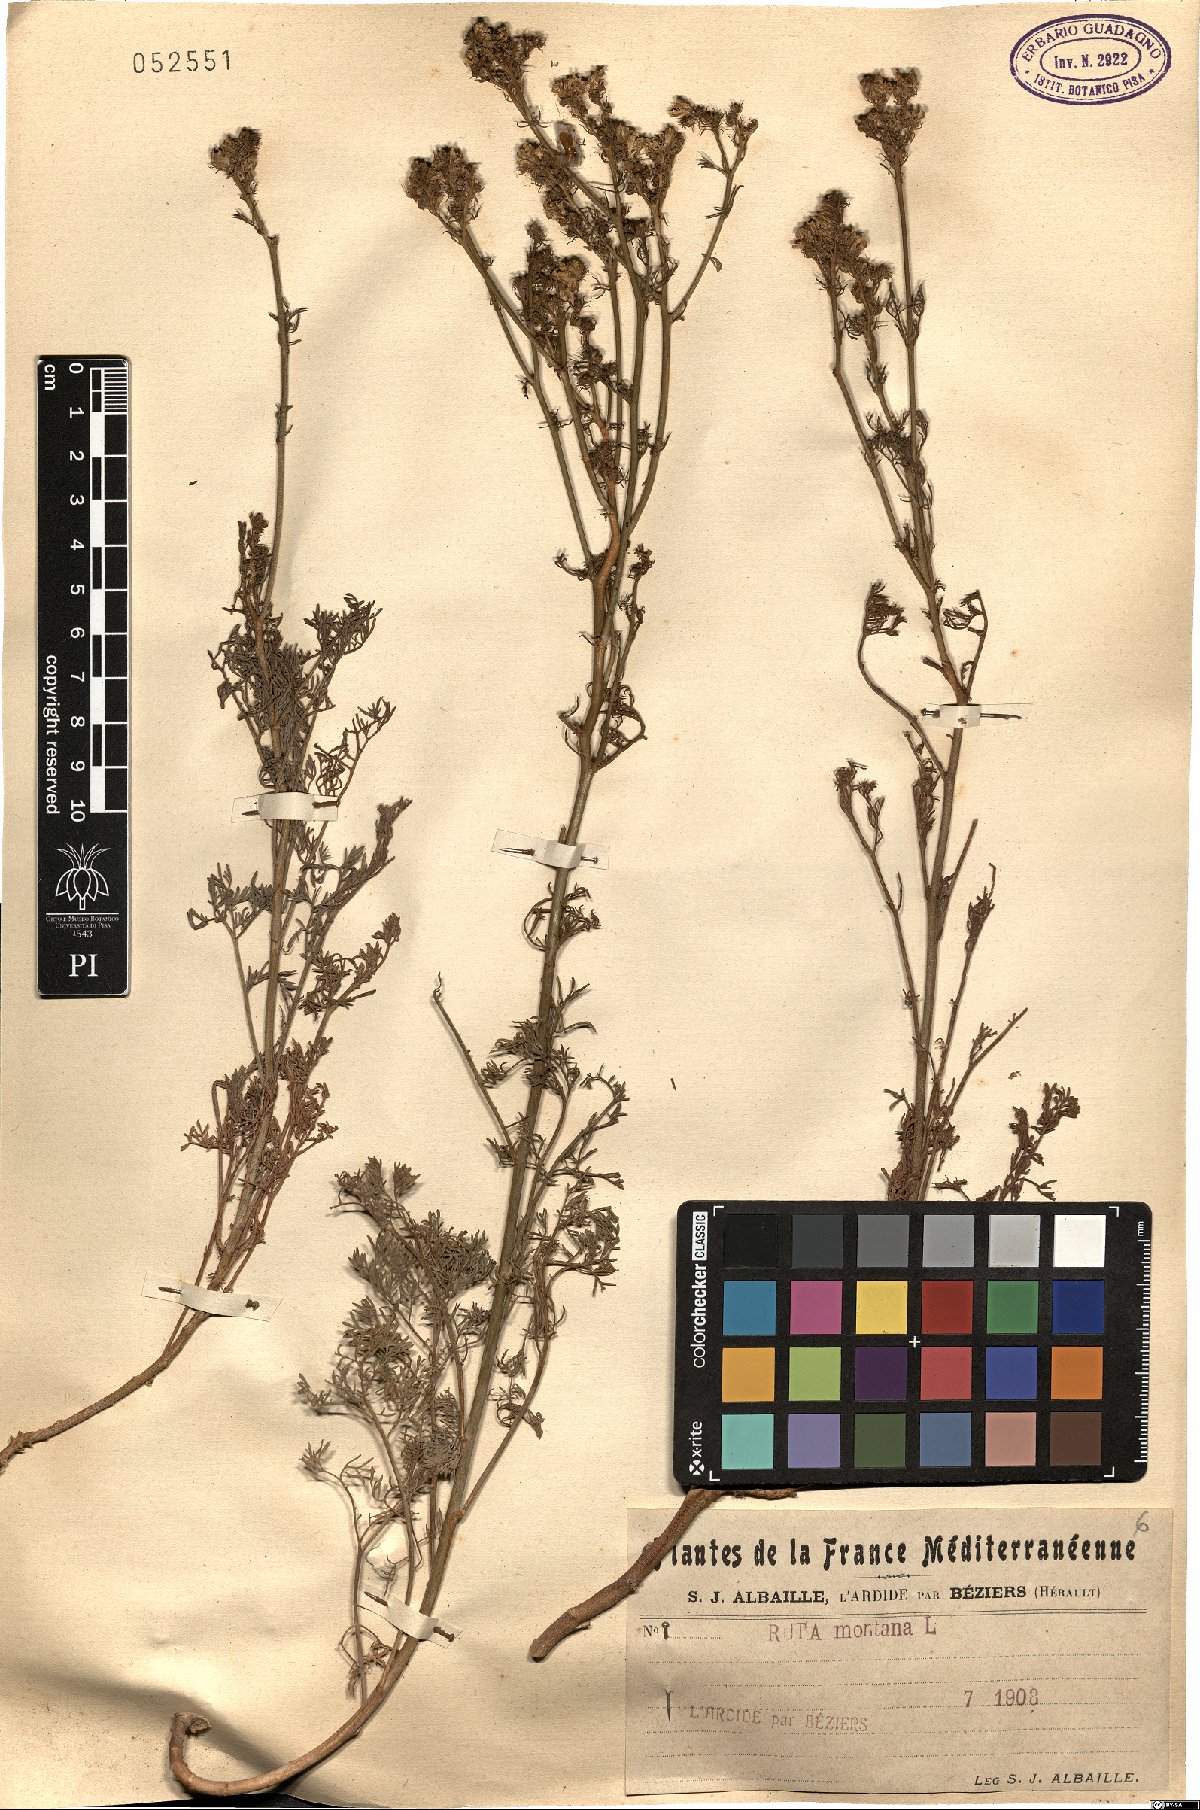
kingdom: Plantae
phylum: Tracheophyta
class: Magnoliopsida
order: Sapindales
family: Rutaceae
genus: Ruta
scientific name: Ruta montana
